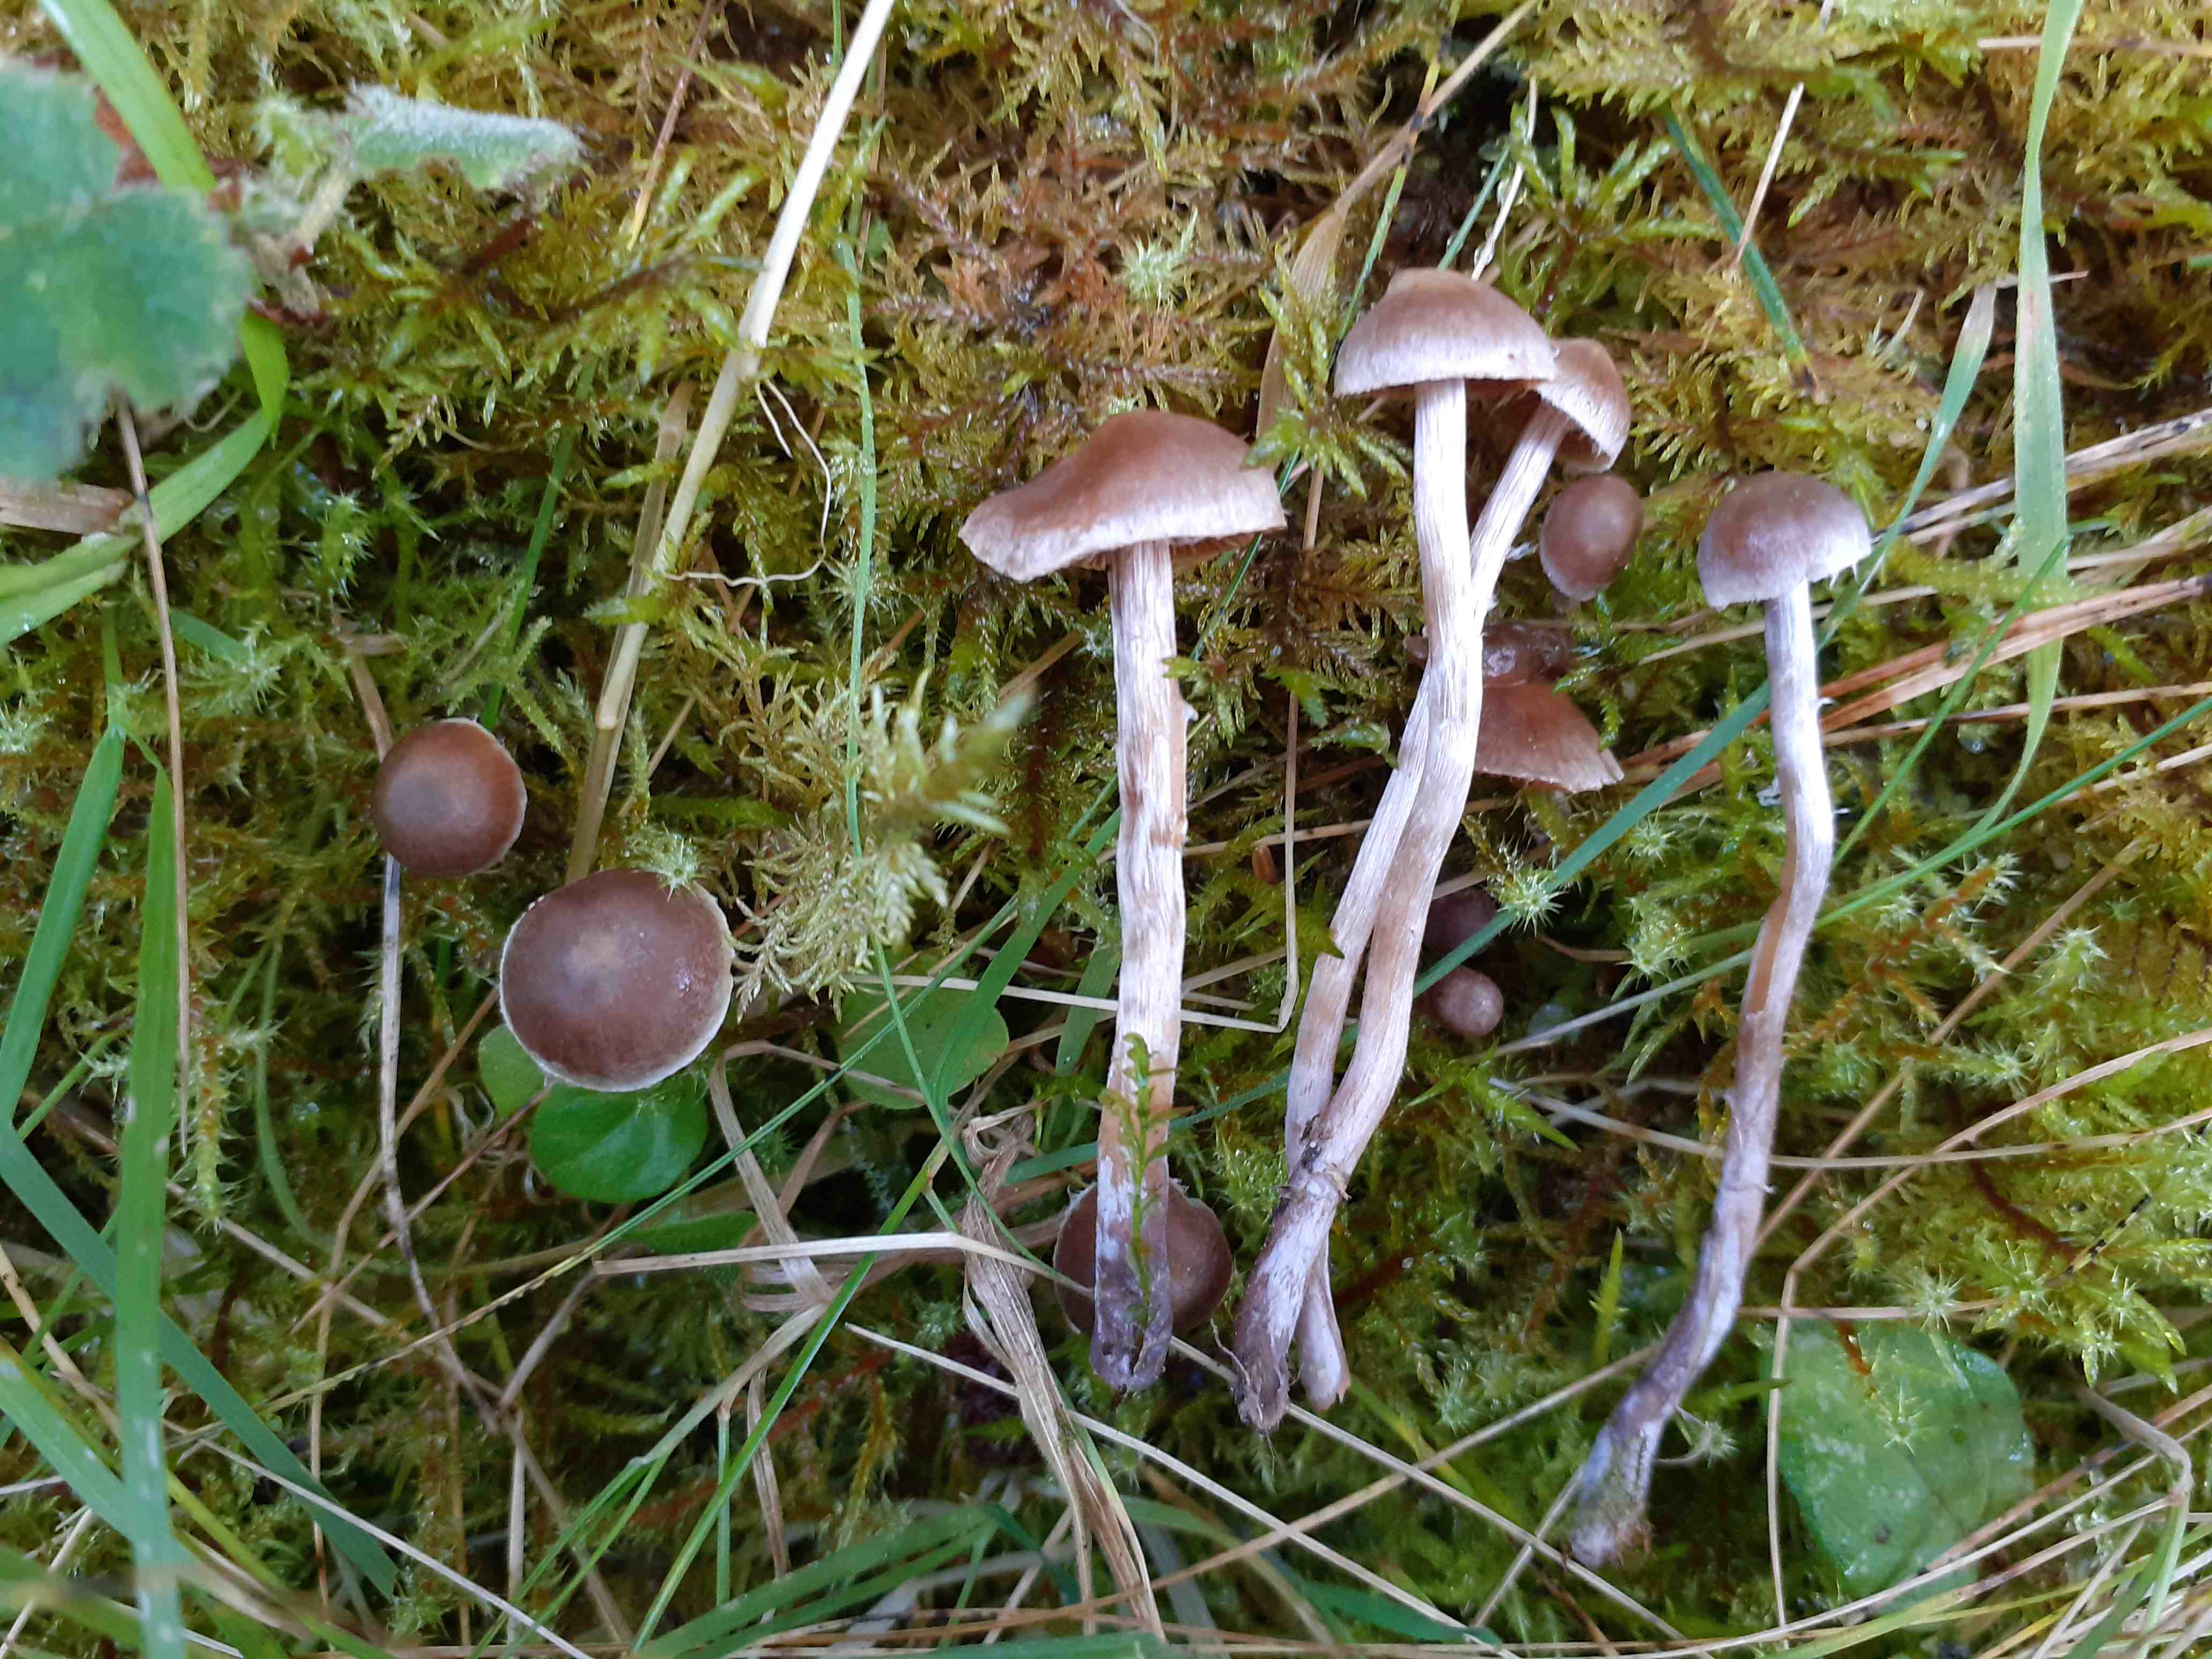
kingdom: Fungi
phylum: Basidiomycota
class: Agaricomycetes
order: Agaricales
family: Cortinariaceae
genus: Cortinarius
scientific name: Cortinarius pseudofallax
